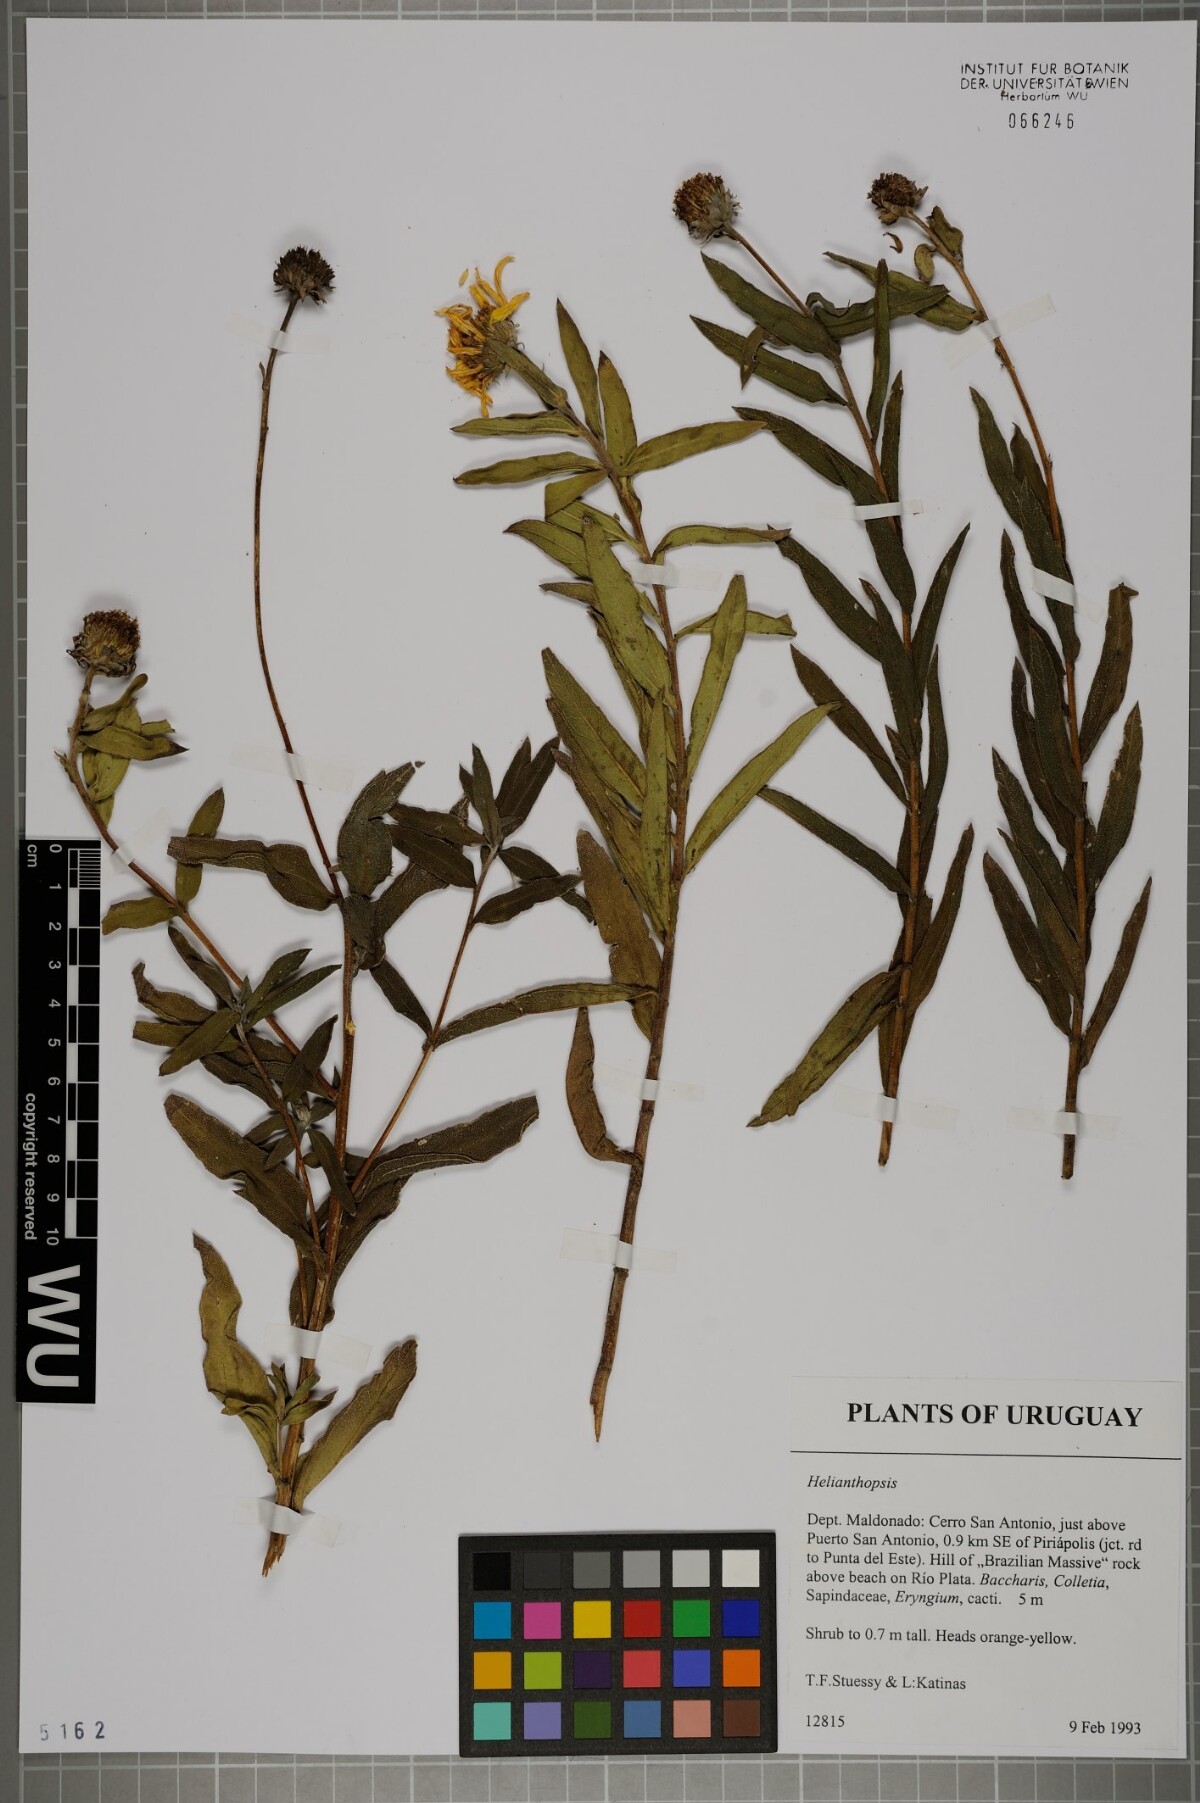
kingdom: Plantae
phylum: Tracheophyta
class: Magnoliopsida
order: Asterales
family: Asteraceae
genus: Aldama
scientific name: Aldama revoluta
